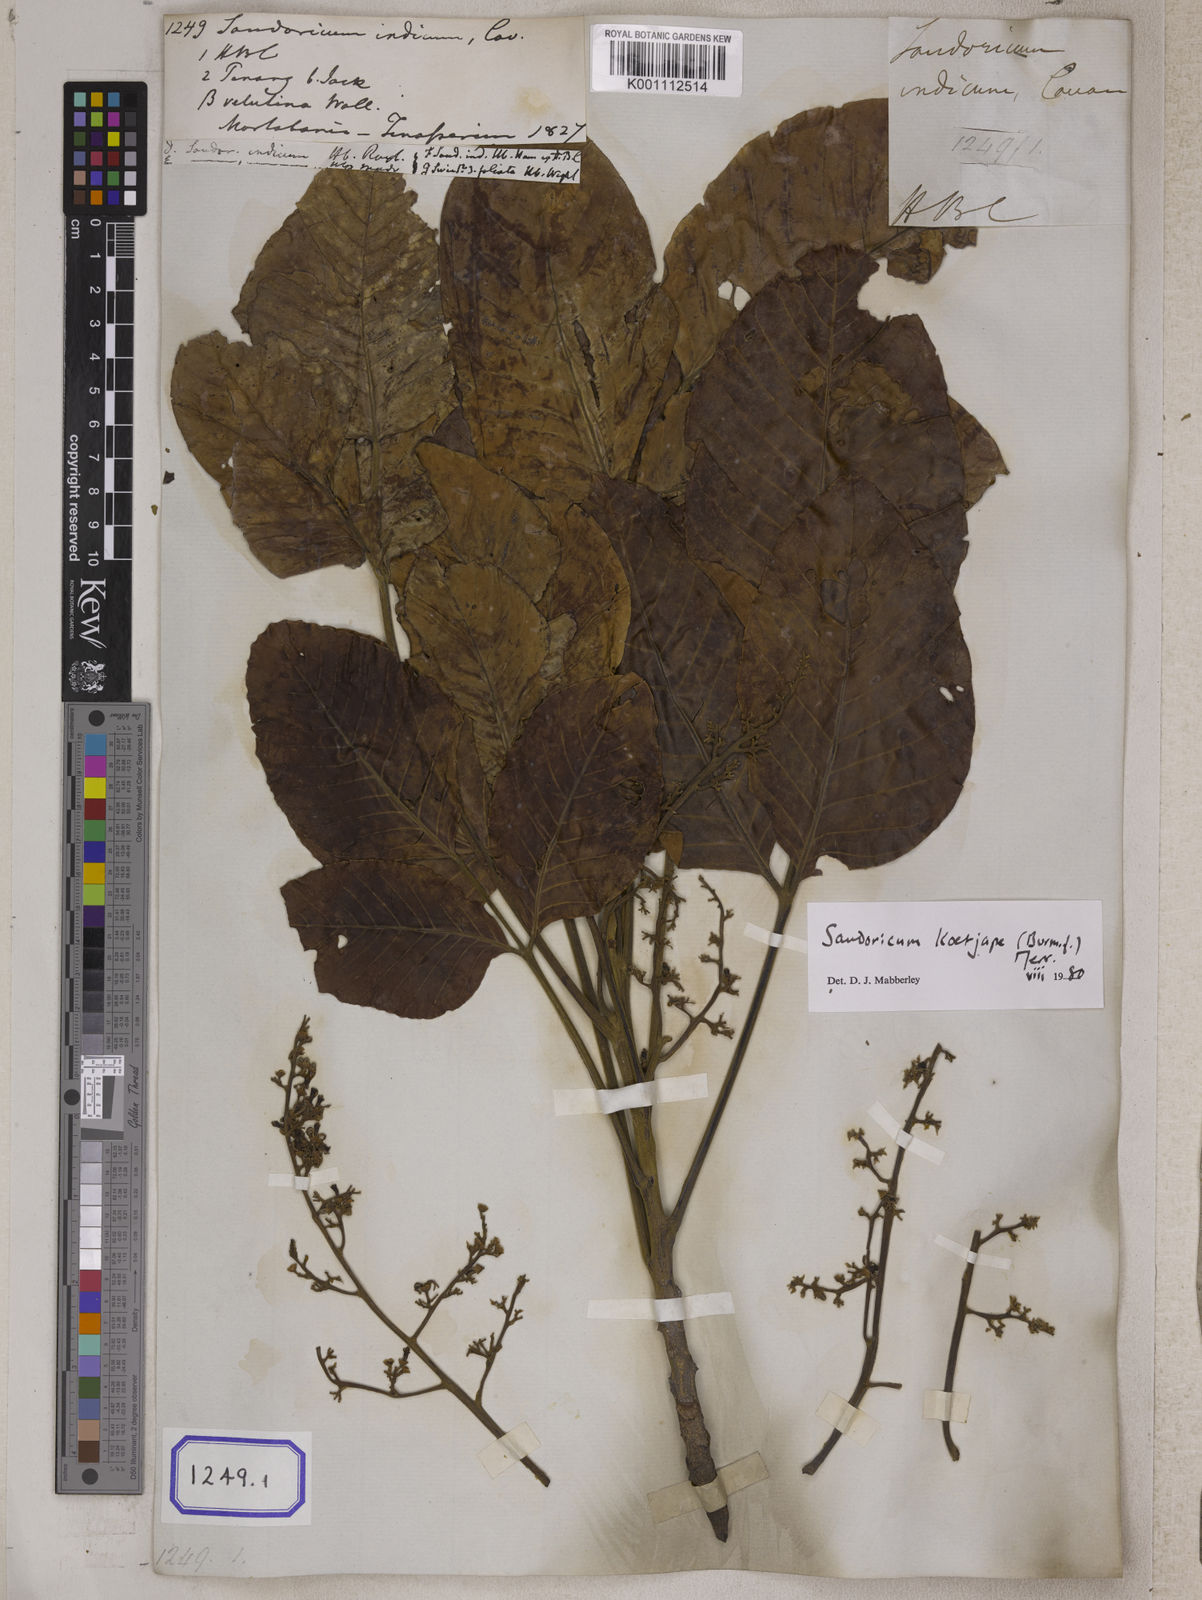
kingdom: Plantae
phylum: Tracheophyta
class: Magnoliopsida
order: Sapindales
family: Meliaceae
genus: Sandoricum
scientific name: Sandoricum koetjape
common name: Santol
